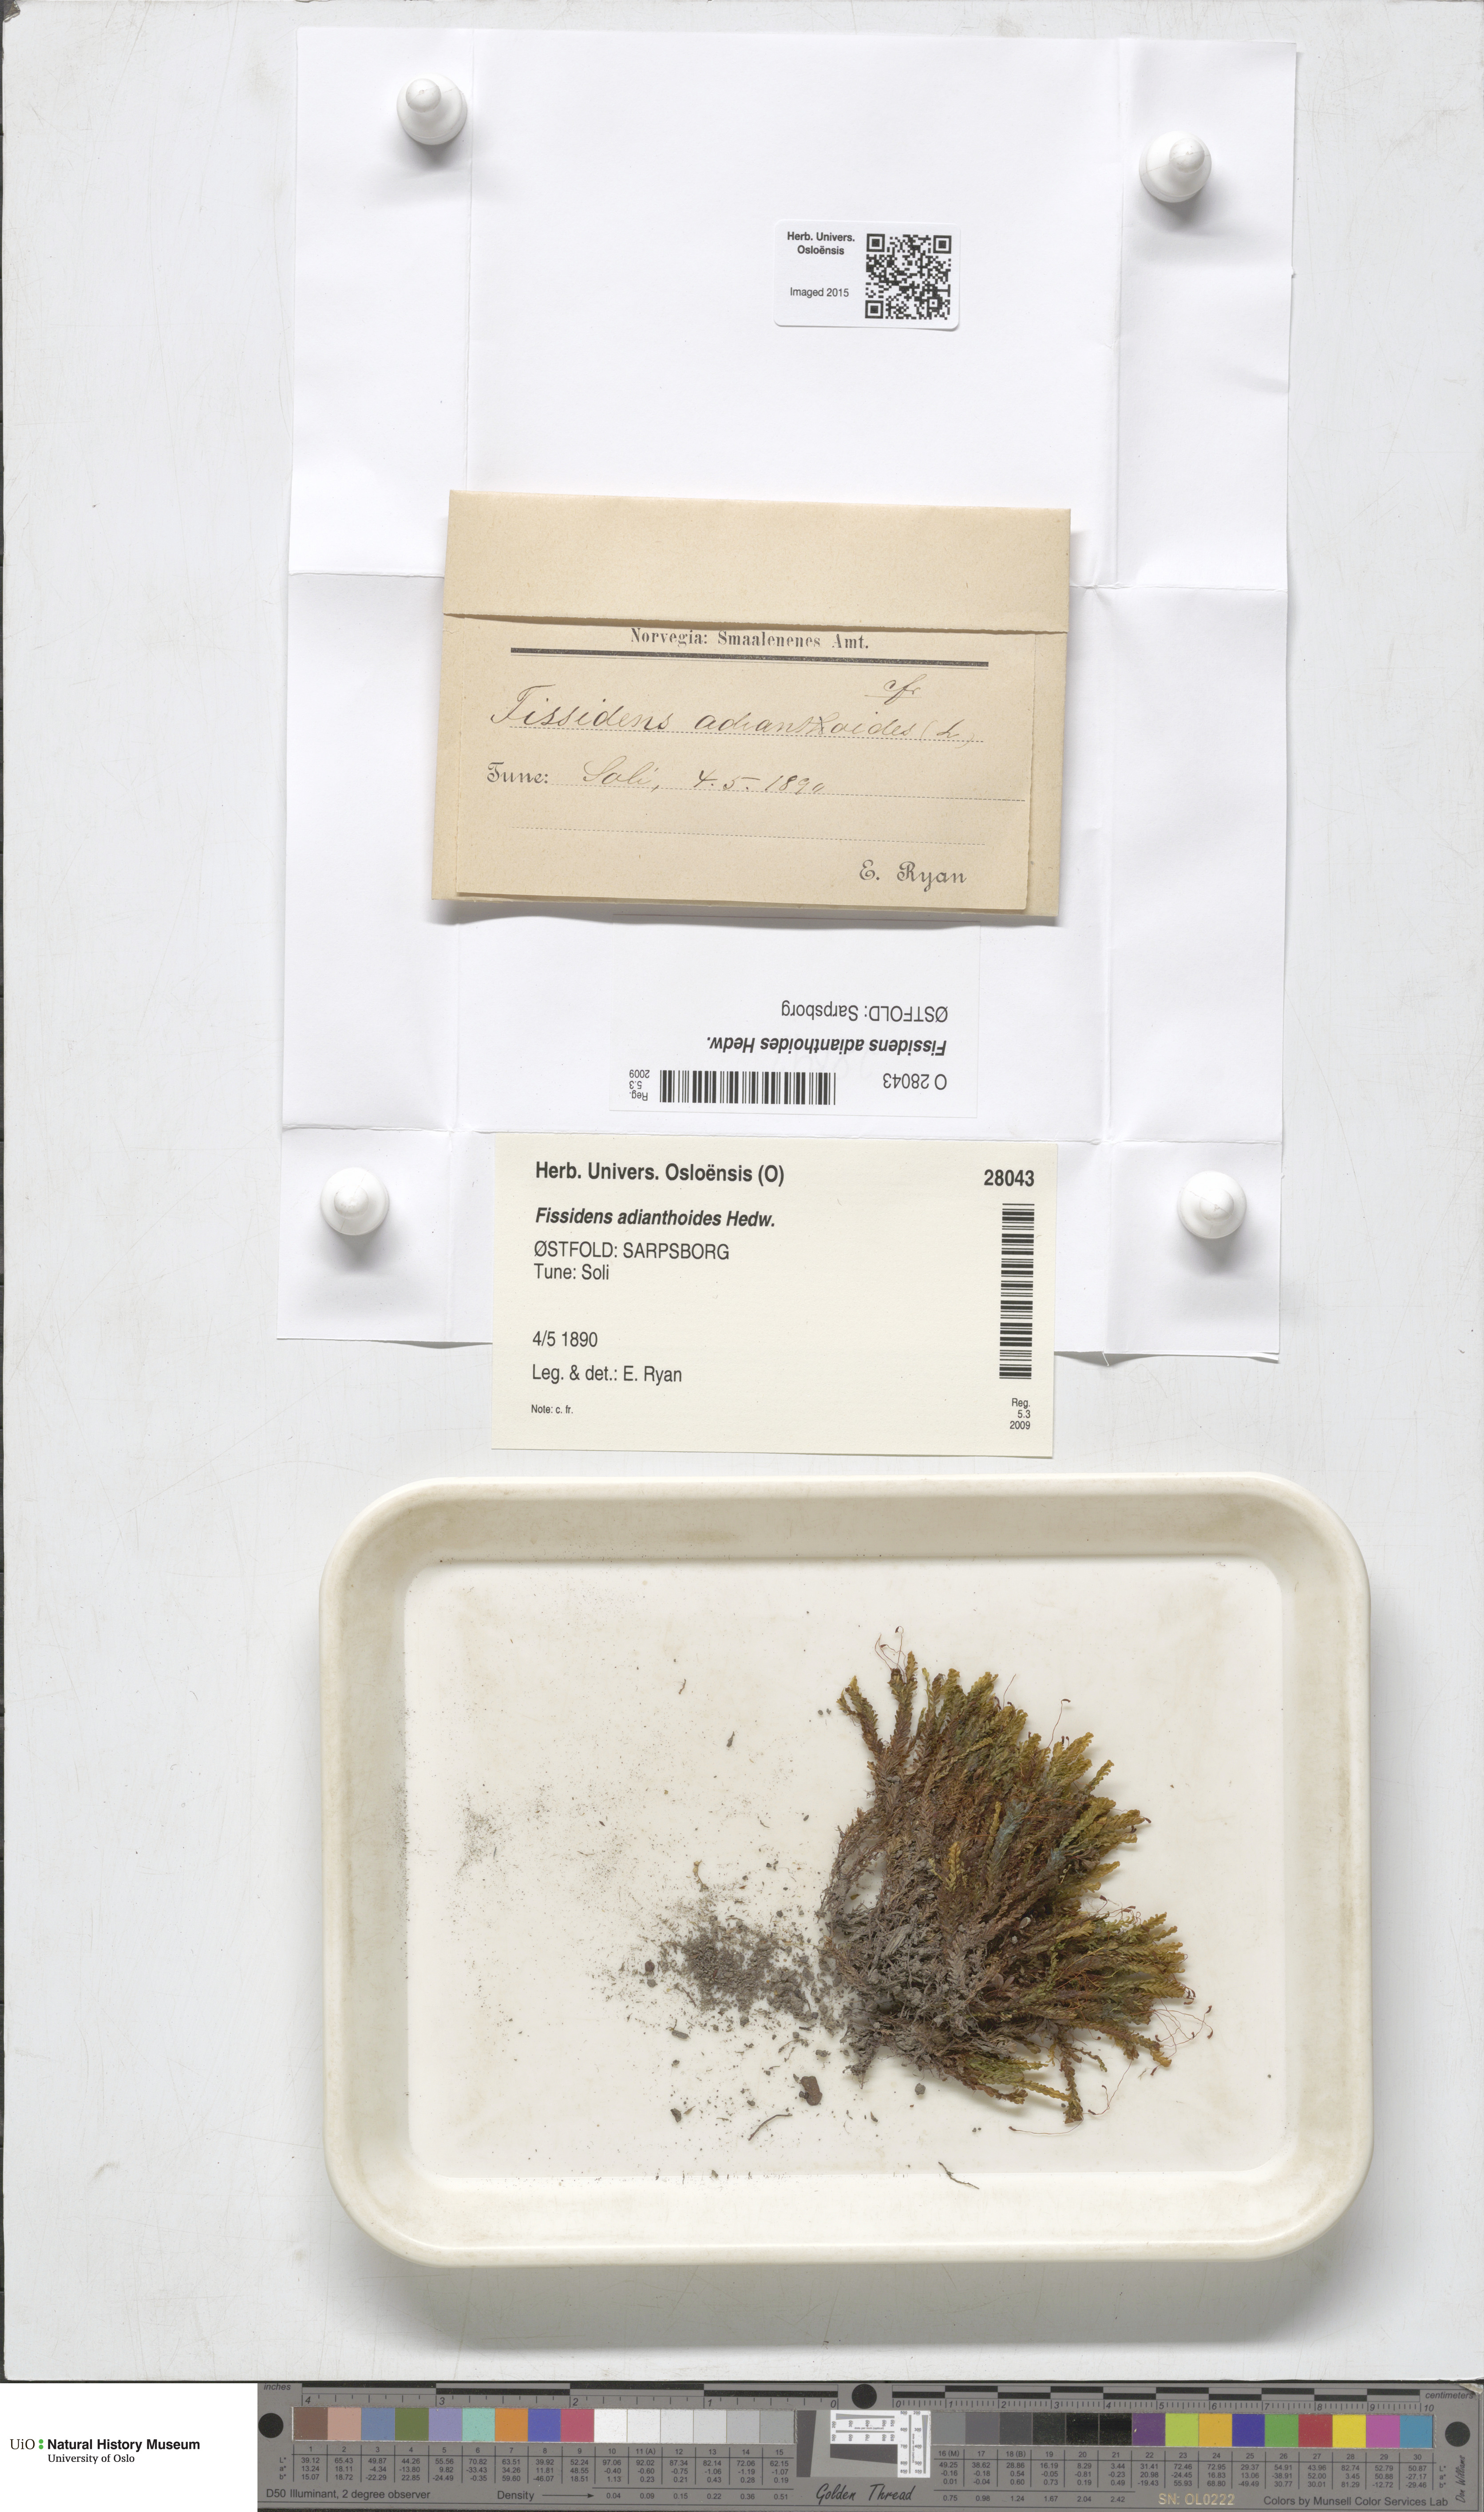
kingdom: Plantae
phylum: Bryophyta
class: Bryopsida
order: Dicranales
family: Fissidentaceae
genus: Fissidens
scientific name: Fissidens adianthoides
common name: Maidenhair pocket moss
